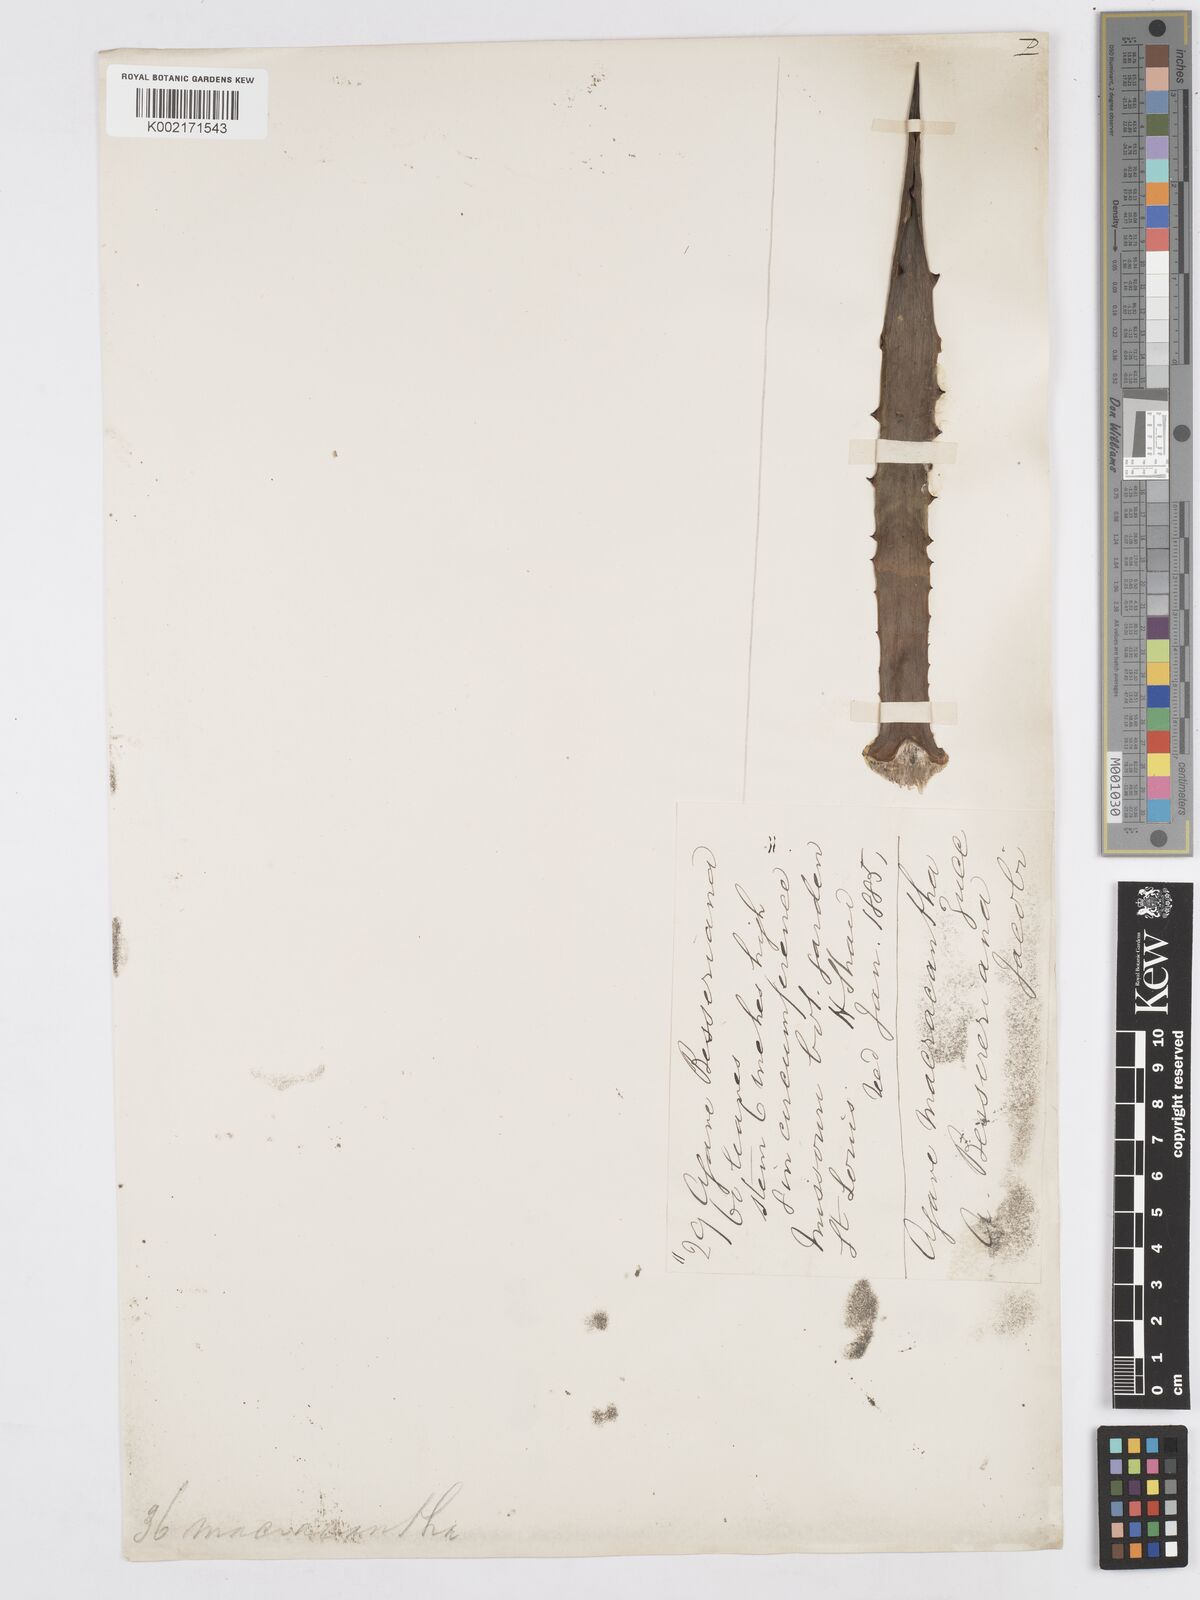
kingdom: Plantae
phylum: Tracheophyta
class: Liliopsida
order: Asparagales
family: Asparagaceae
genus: Agave
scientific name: Agave macroacantha
